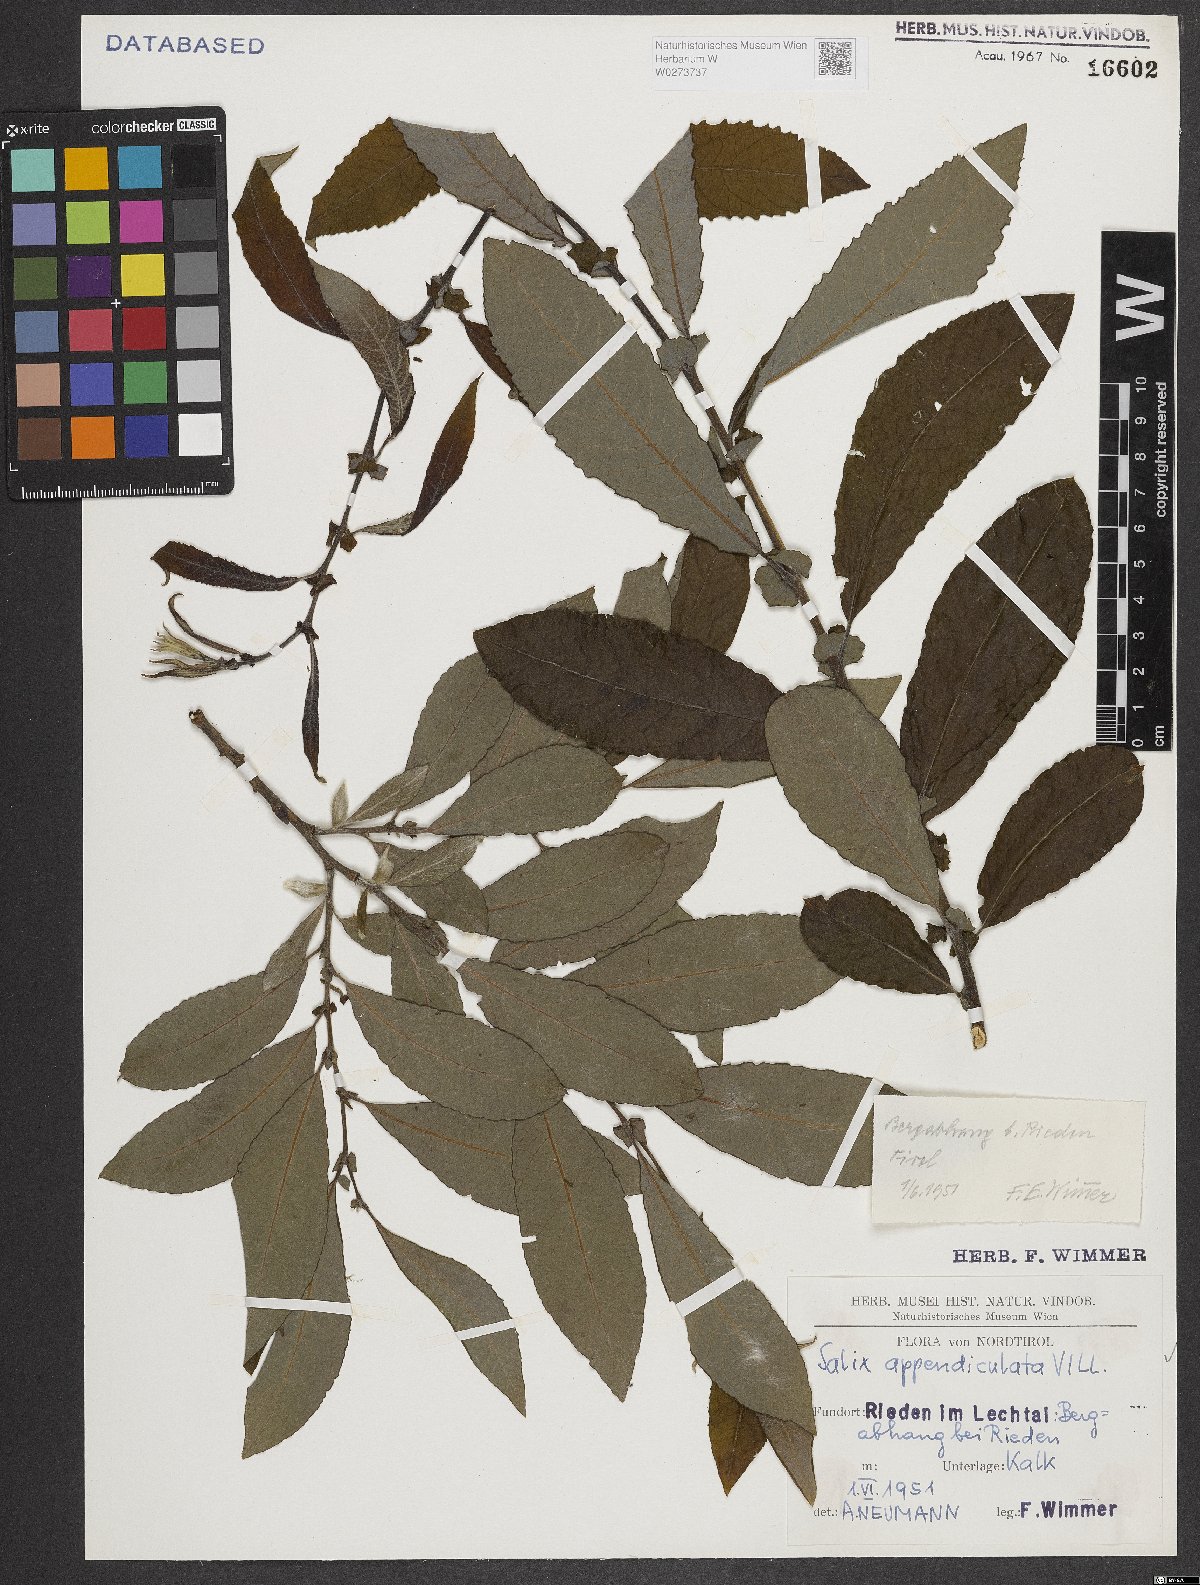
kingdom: Plantae
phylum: Tracheophyta
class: Magnoliopsida
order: Malpighiales
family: Salicaceae
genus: Salix
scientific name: Salix appendiculata
